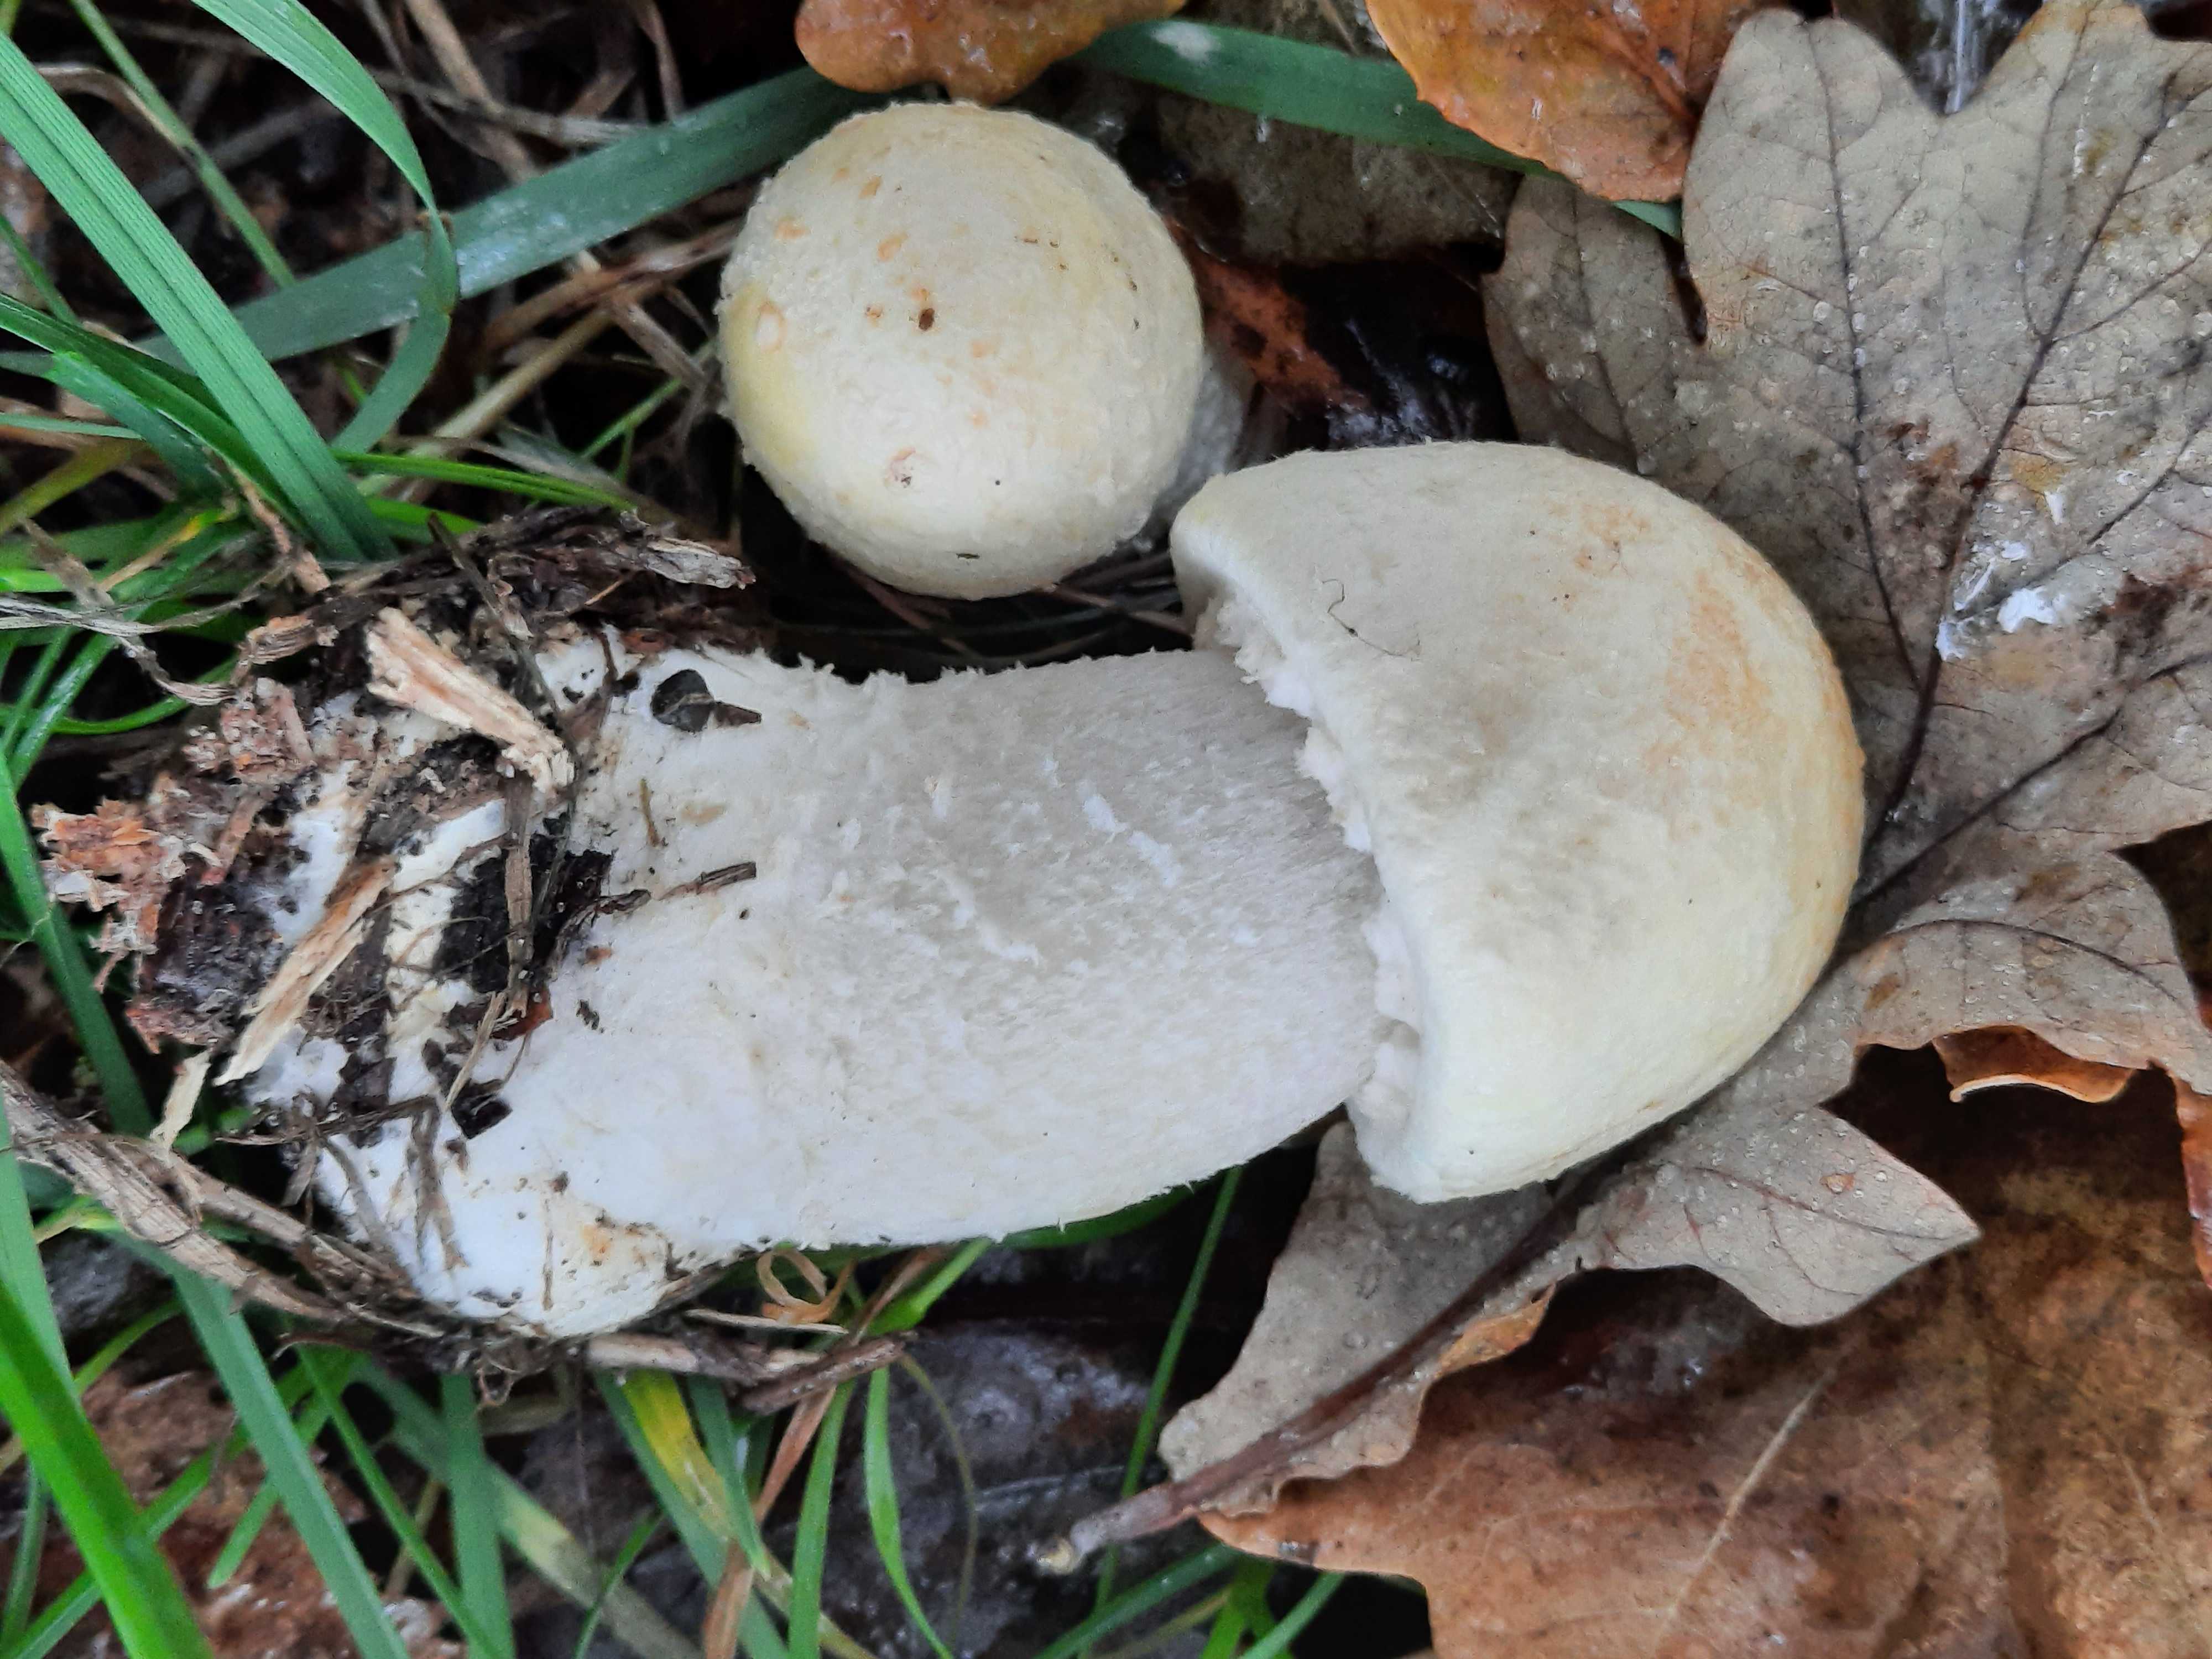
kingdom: Fungi
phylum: Basidiomycota
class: Agaricomycetes
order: Agaricales
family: Agaricaceae
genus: Agaricus
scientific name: Agaricus arvensis
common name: ager-champignon
